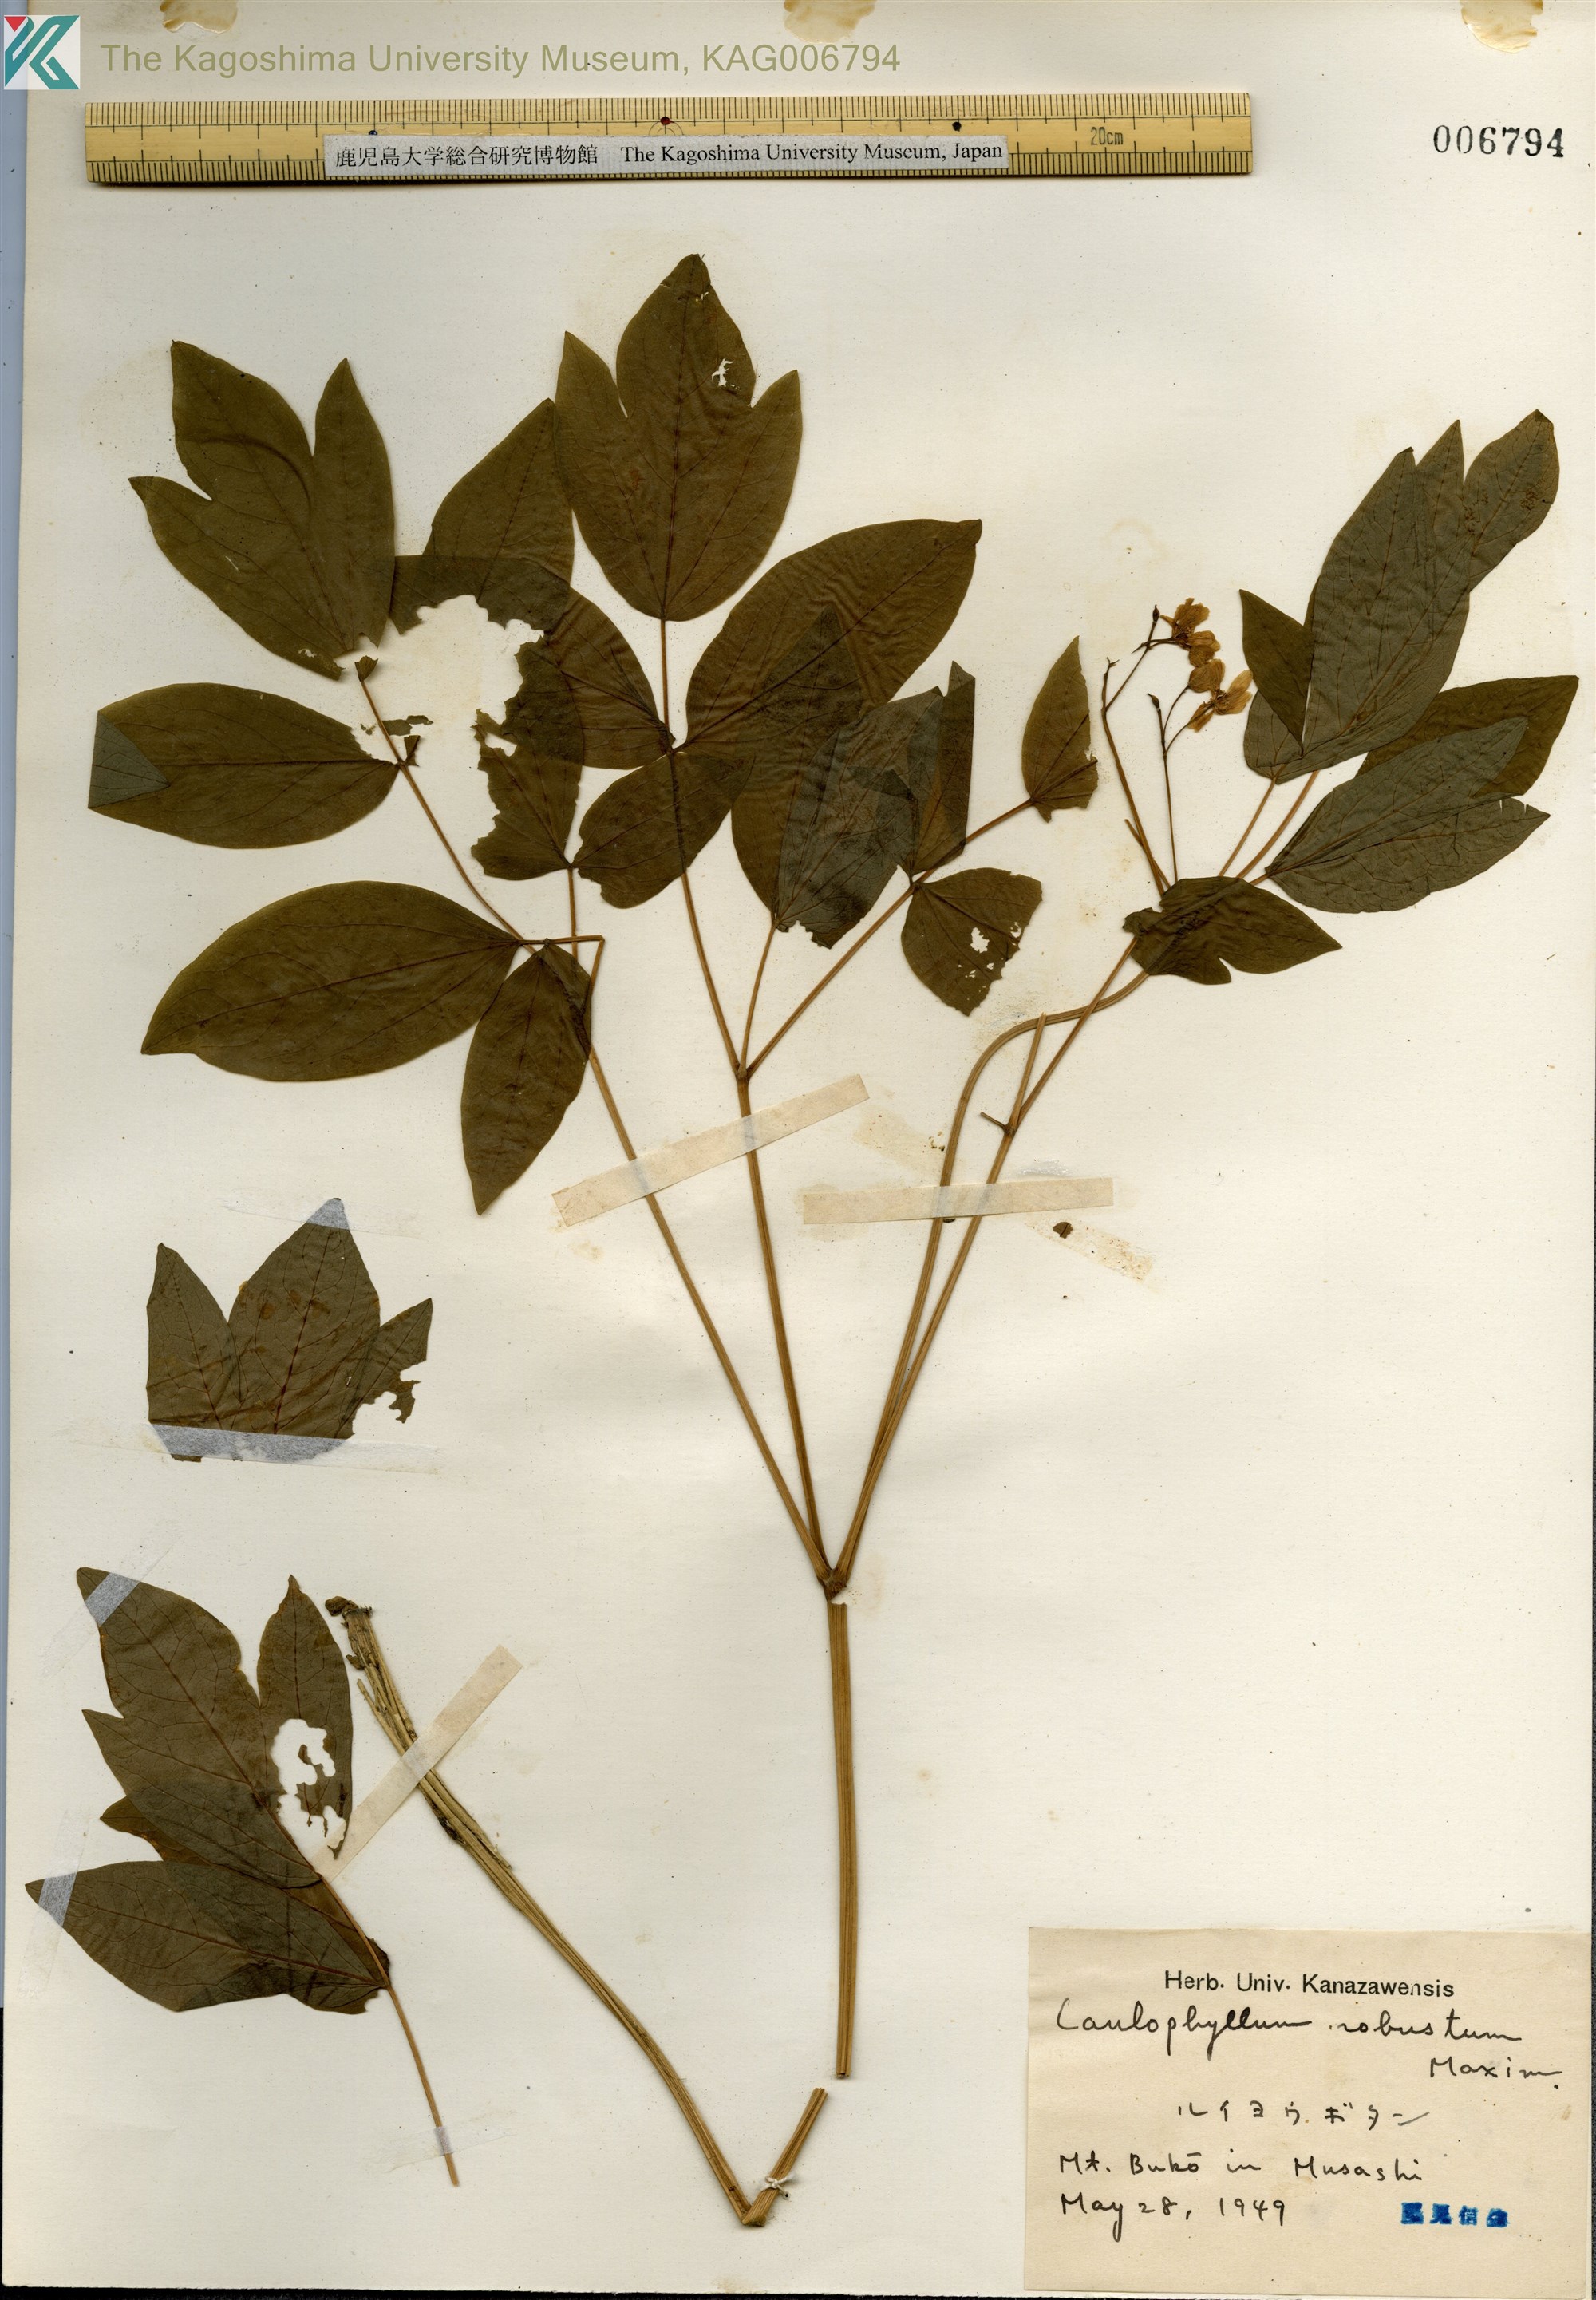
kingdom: Plantae
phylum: Tracheophyta
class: Magnoliopsida
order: Ranunculales
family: Berberidaceae
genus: Caulophyllum
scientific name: Caulophyllum robustum
